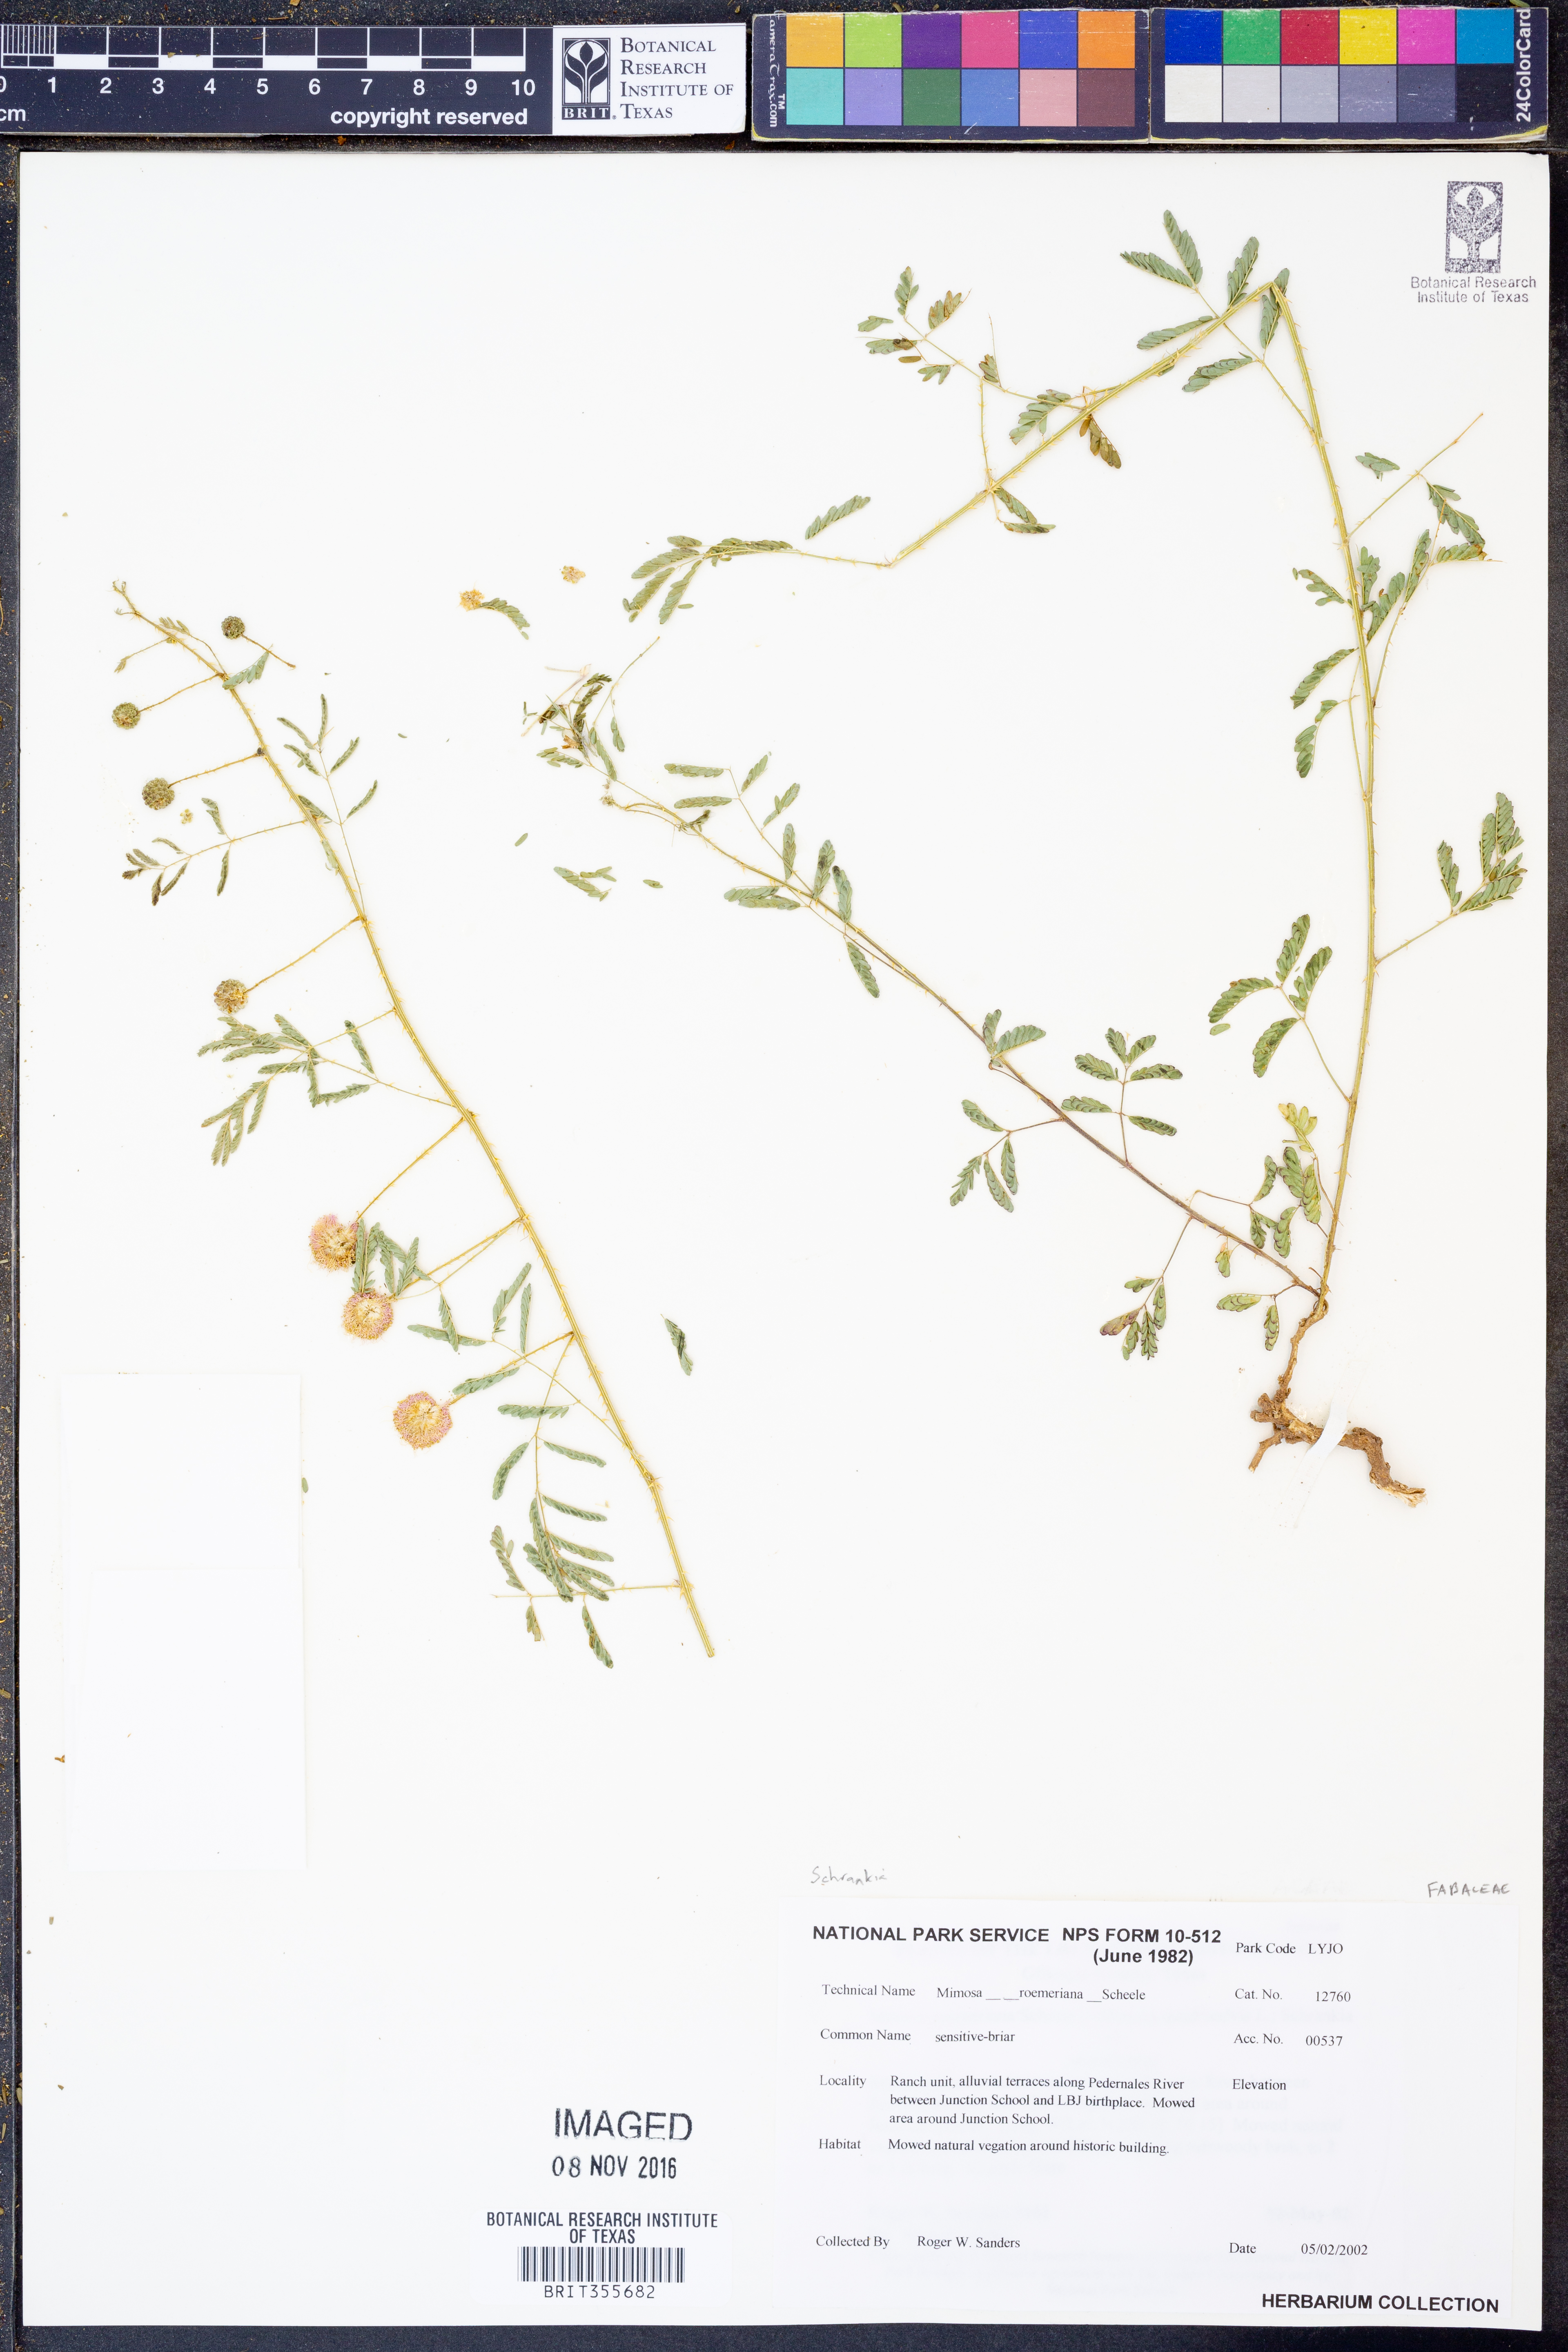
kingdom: Plantae
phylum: Tracheophyta
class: Magnoliopsida
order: Fabales
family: Fabaceae
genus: Mimosa
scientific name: Mimosa quadrivalvis
